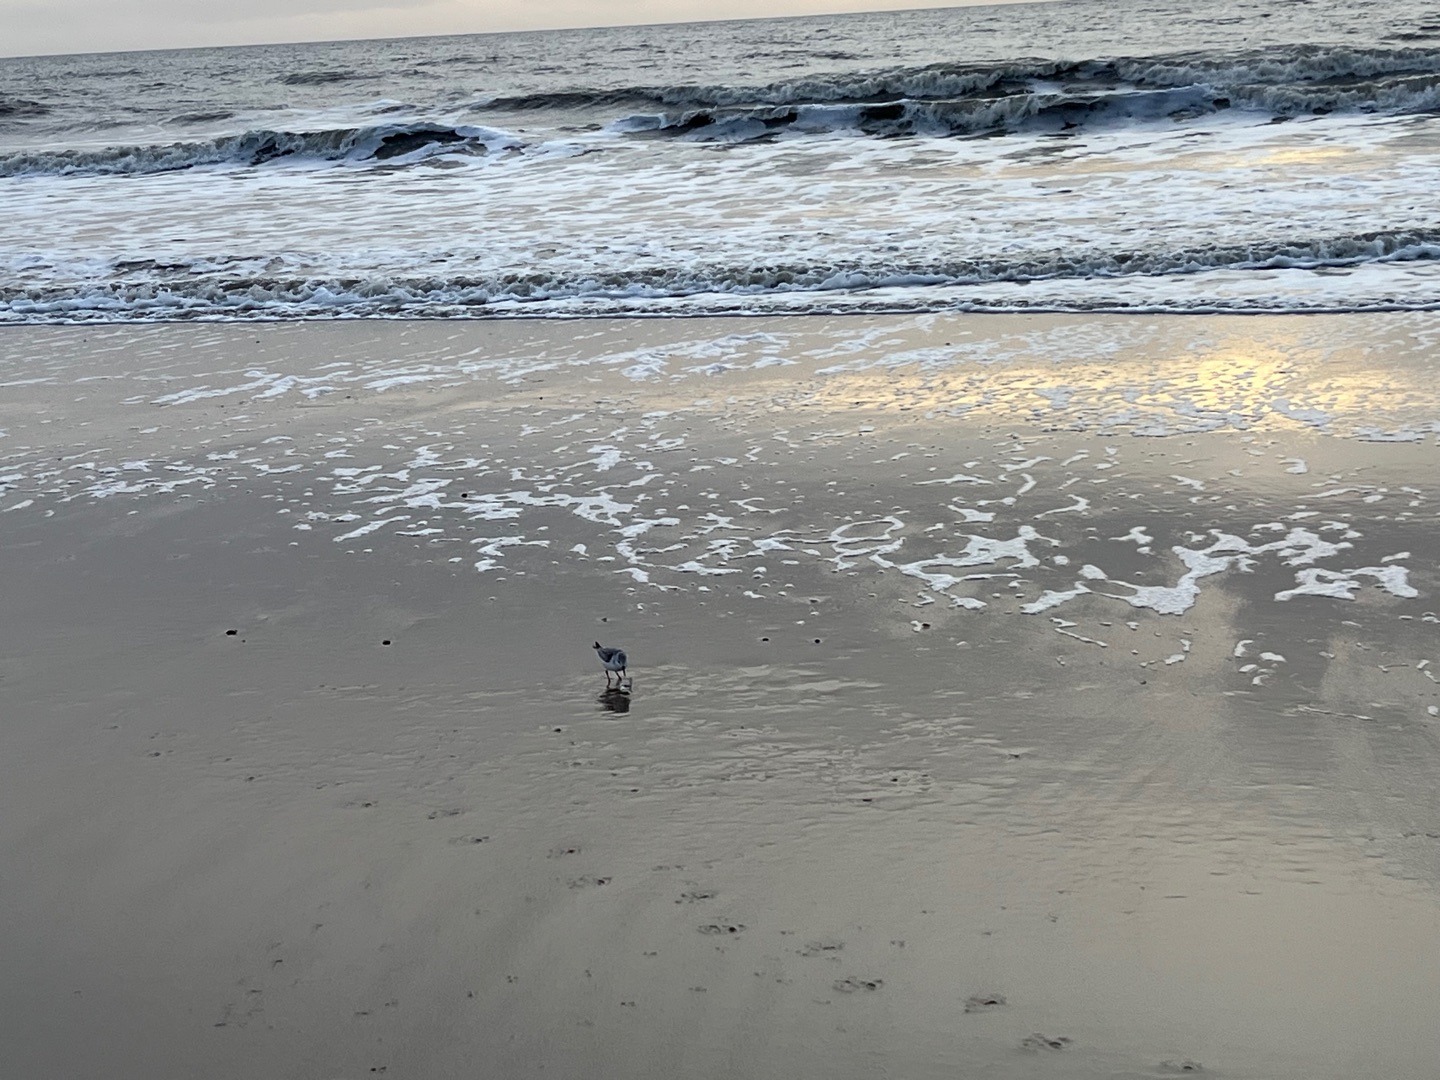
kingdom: Animalia
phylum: Chordata
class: Aves
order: Charadriiformes
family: Scolopacidae
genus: Calidris
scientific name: Calidris alba
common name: Sandløber
